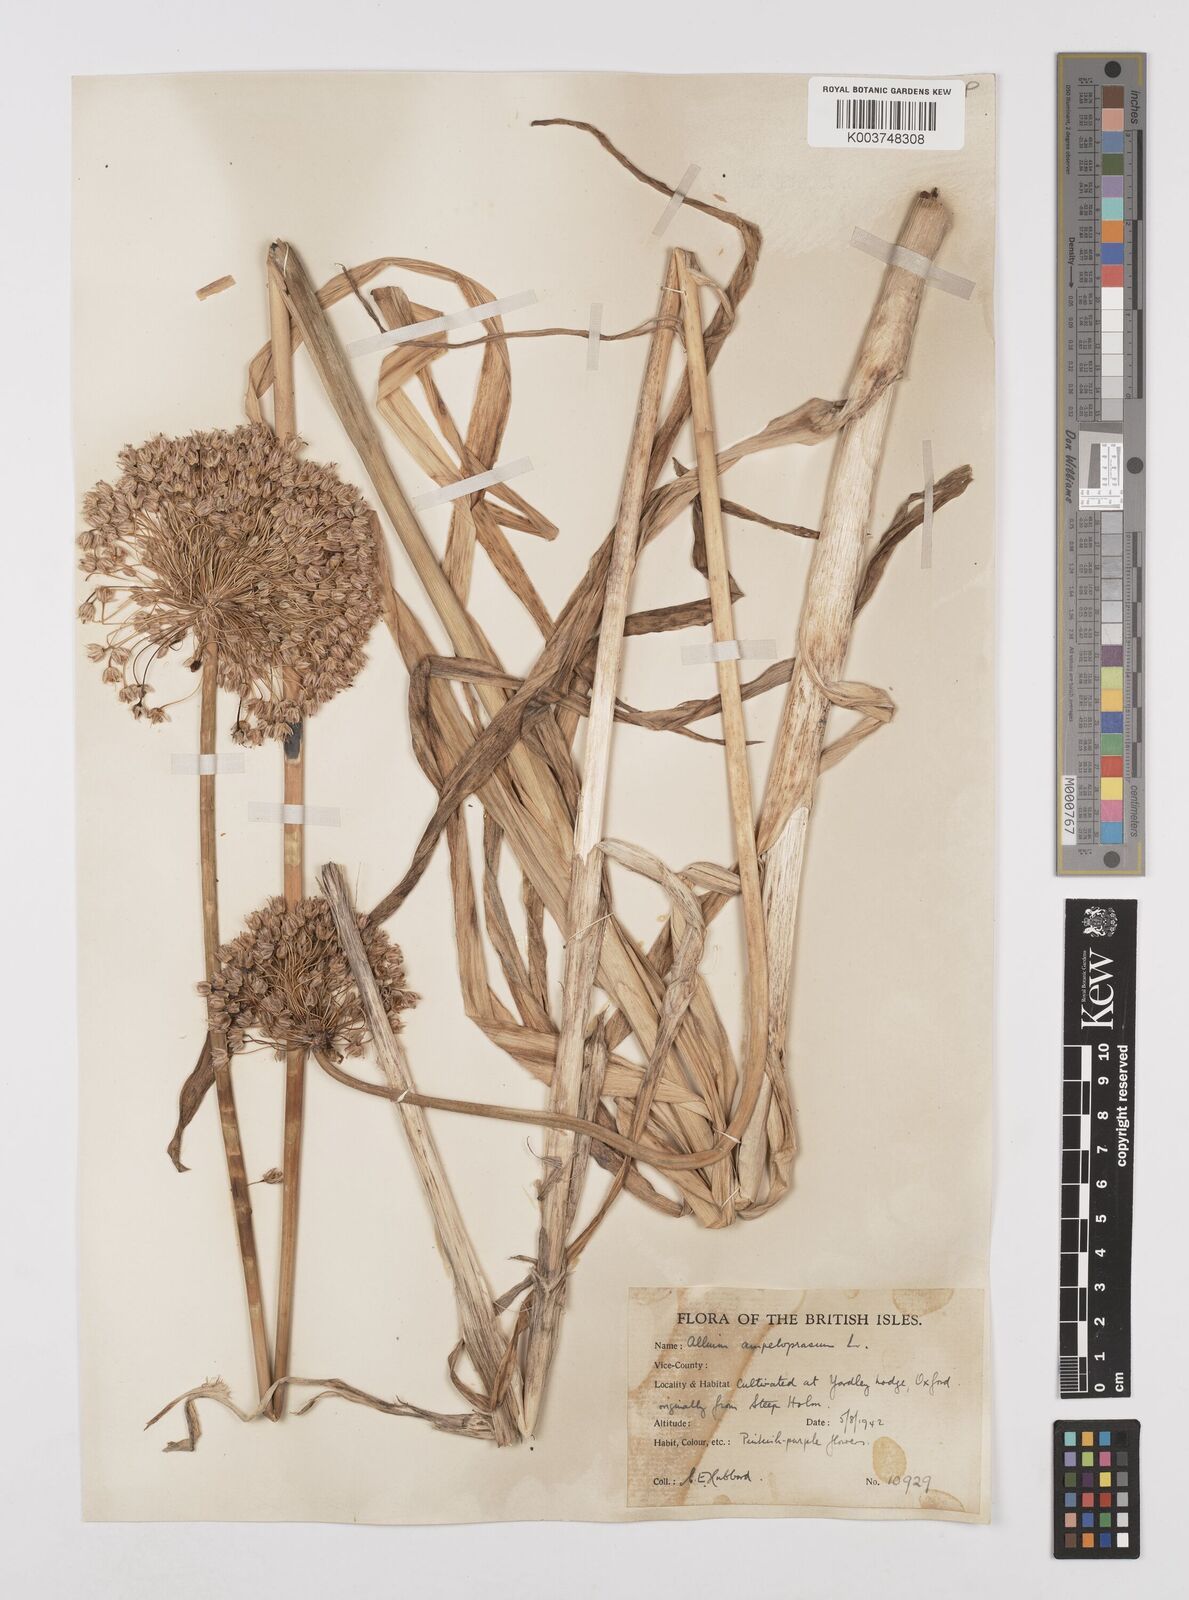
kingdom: Plantae
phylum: Tracheophyta
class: Liliopsida
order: Asparagales
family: Amaryllidaceae
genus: Allium
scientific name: Allium ampeloprasum
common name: Wild leek
